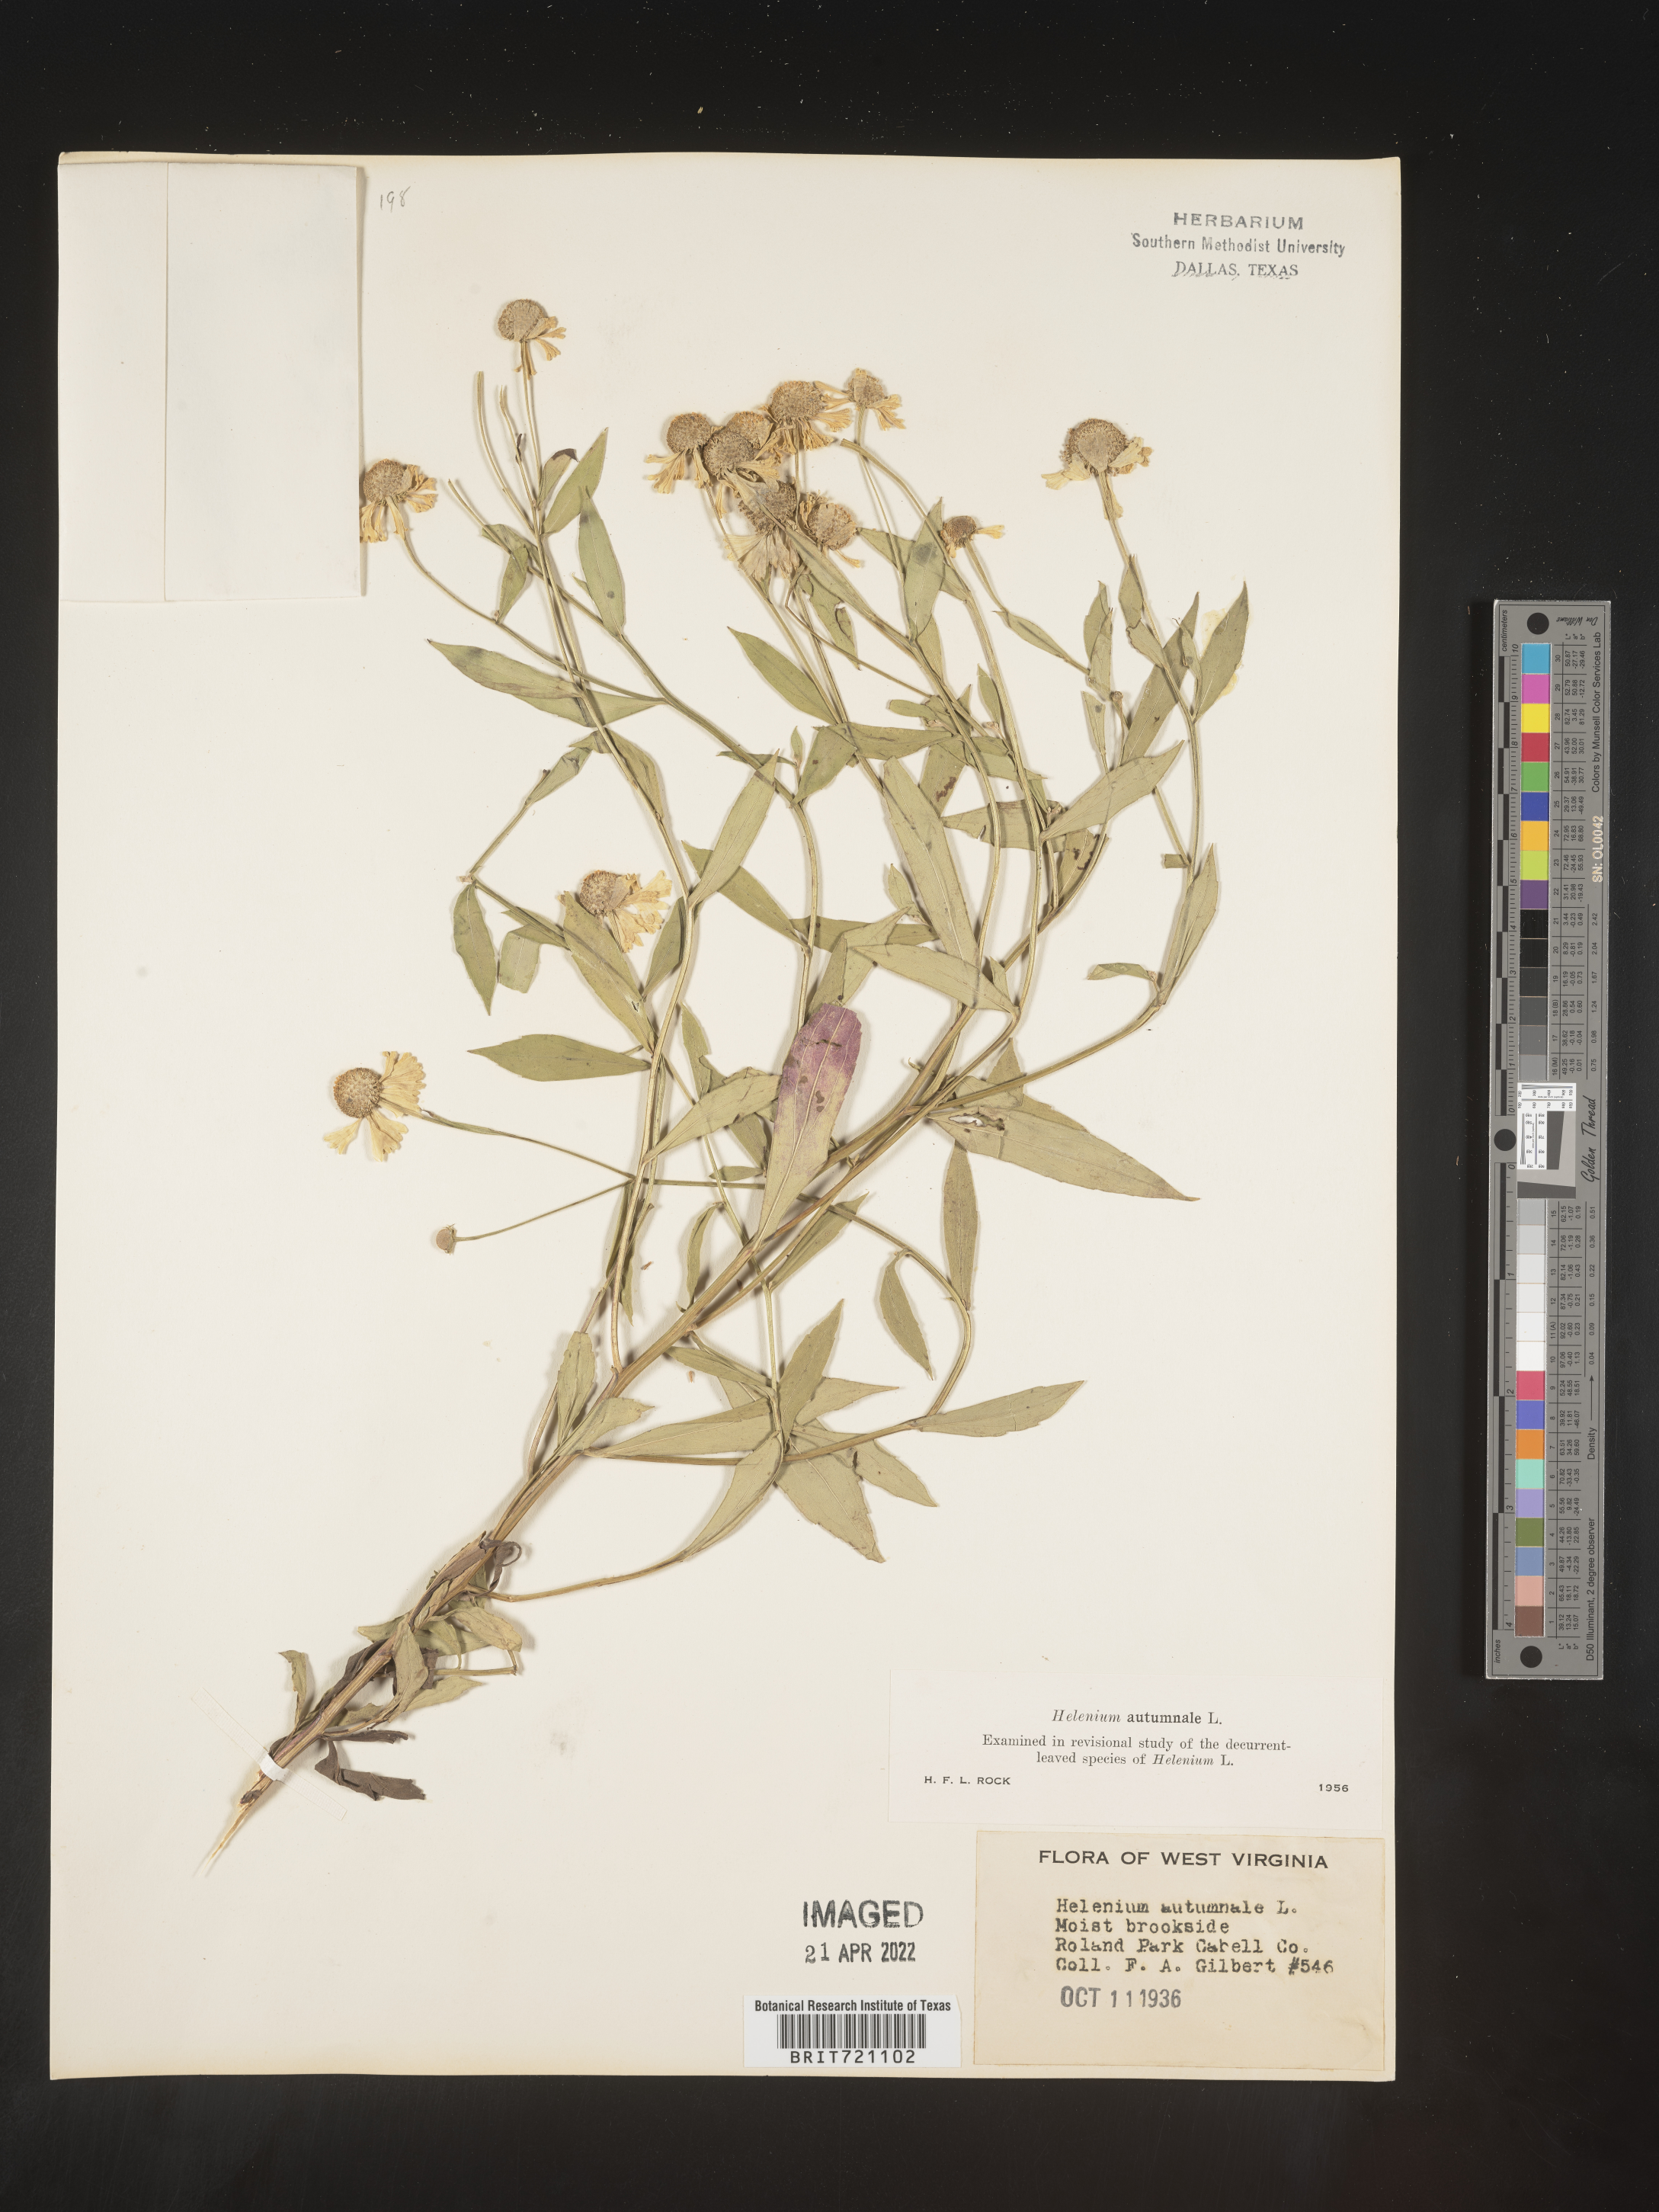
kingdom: Plantae
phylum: Tracheophyta
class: Magnoliopsida
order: Asterales
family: Asteraceae
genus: Helenium
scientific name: Helenium autumnale
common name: Sneezeweed
